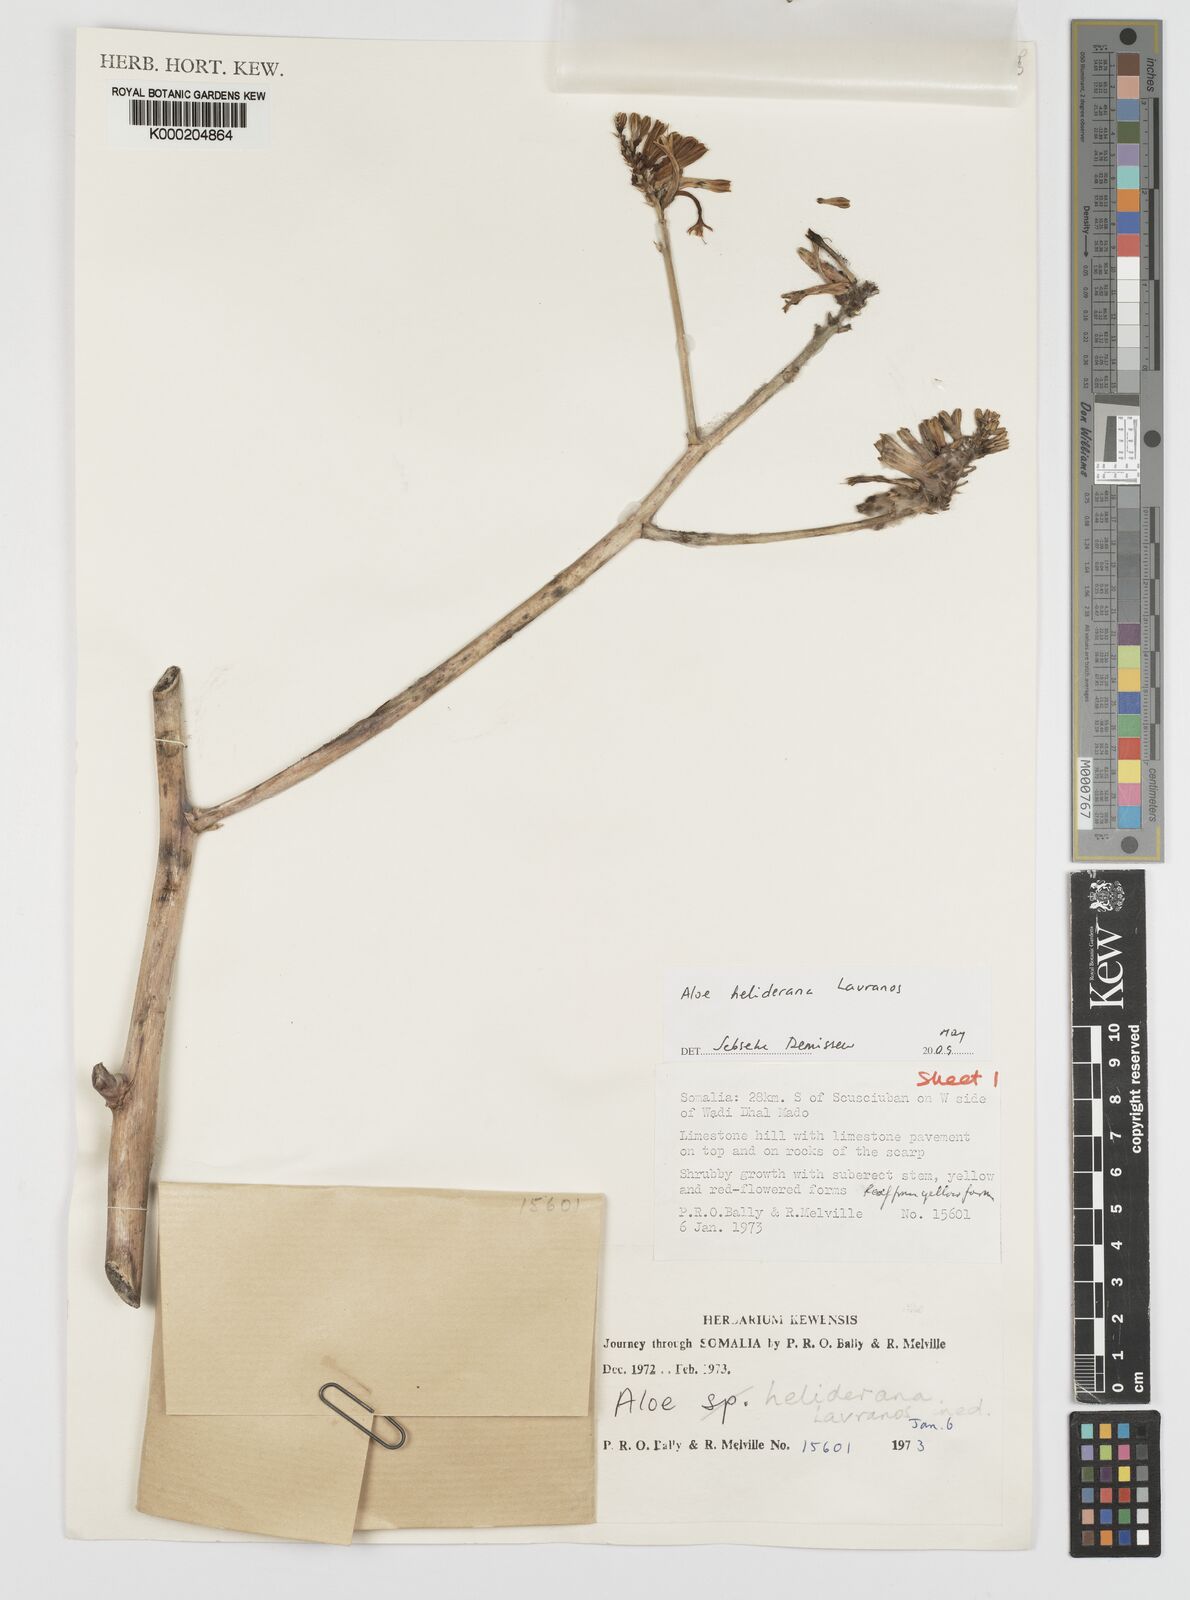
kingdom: Plantae
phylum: Tracheophyta
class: Liliopsida
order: Asparagales
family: Asphodelaceae
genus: Aloe
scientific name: Aloe heliderana
